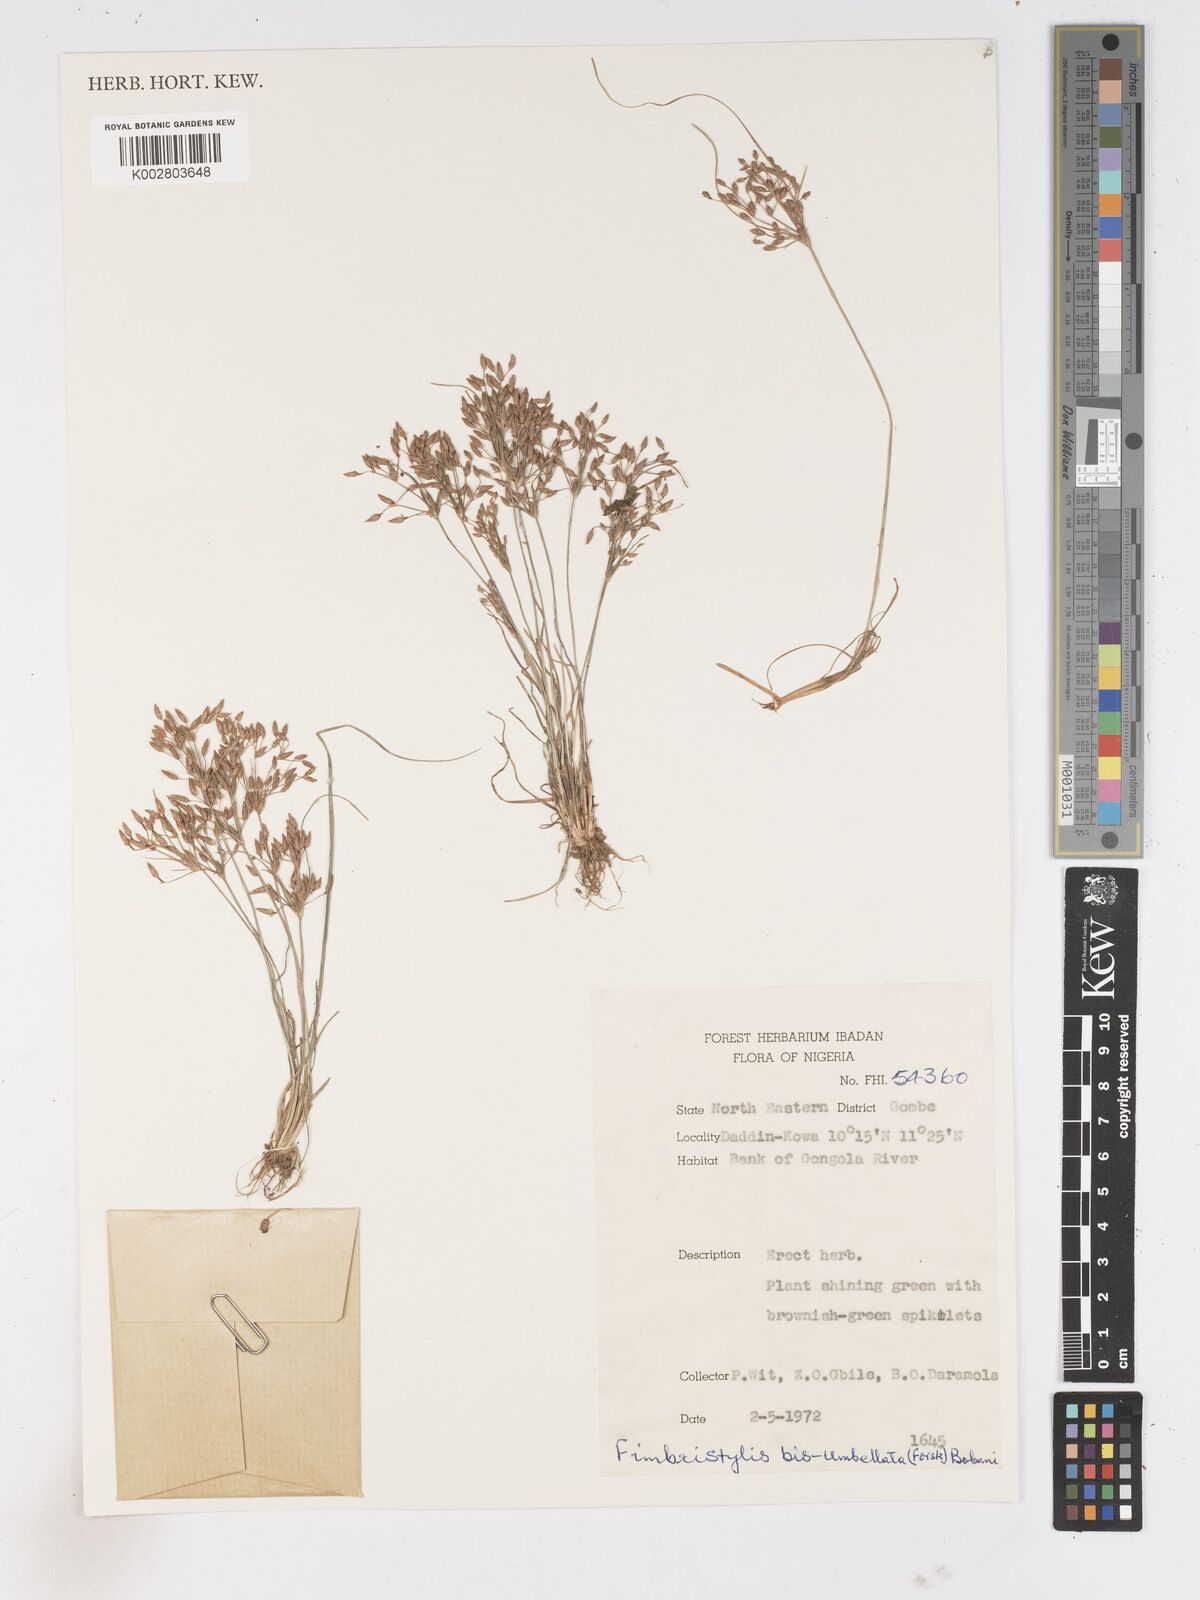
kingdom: Plantae
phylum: Tracheophyta
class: Liliopsida
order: Poales
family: Cyperaceae
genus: Fimbristylis
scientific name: Fimbristylis bisumbellata
